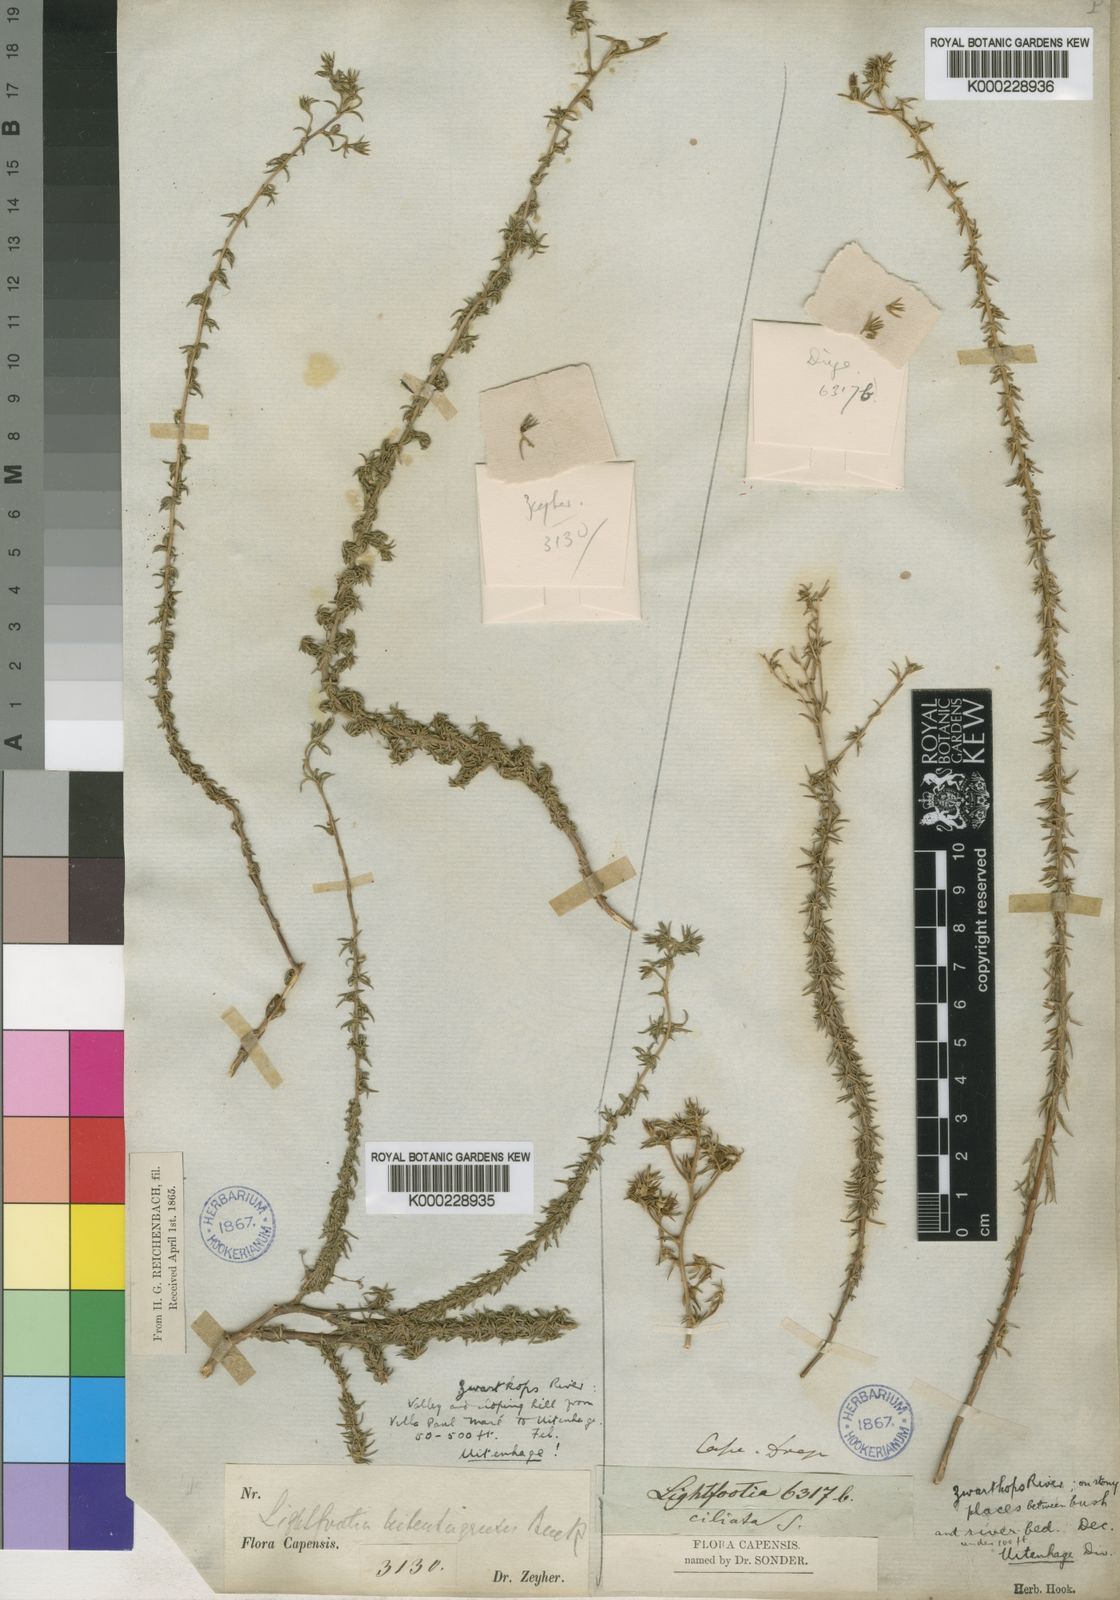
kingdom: Plantae
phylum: Tracheophyta
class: Magnoliopsida
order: Asterales
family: Campanulaceae
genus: Wahlenbergia
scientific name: Wahlenbergia thunbergii
